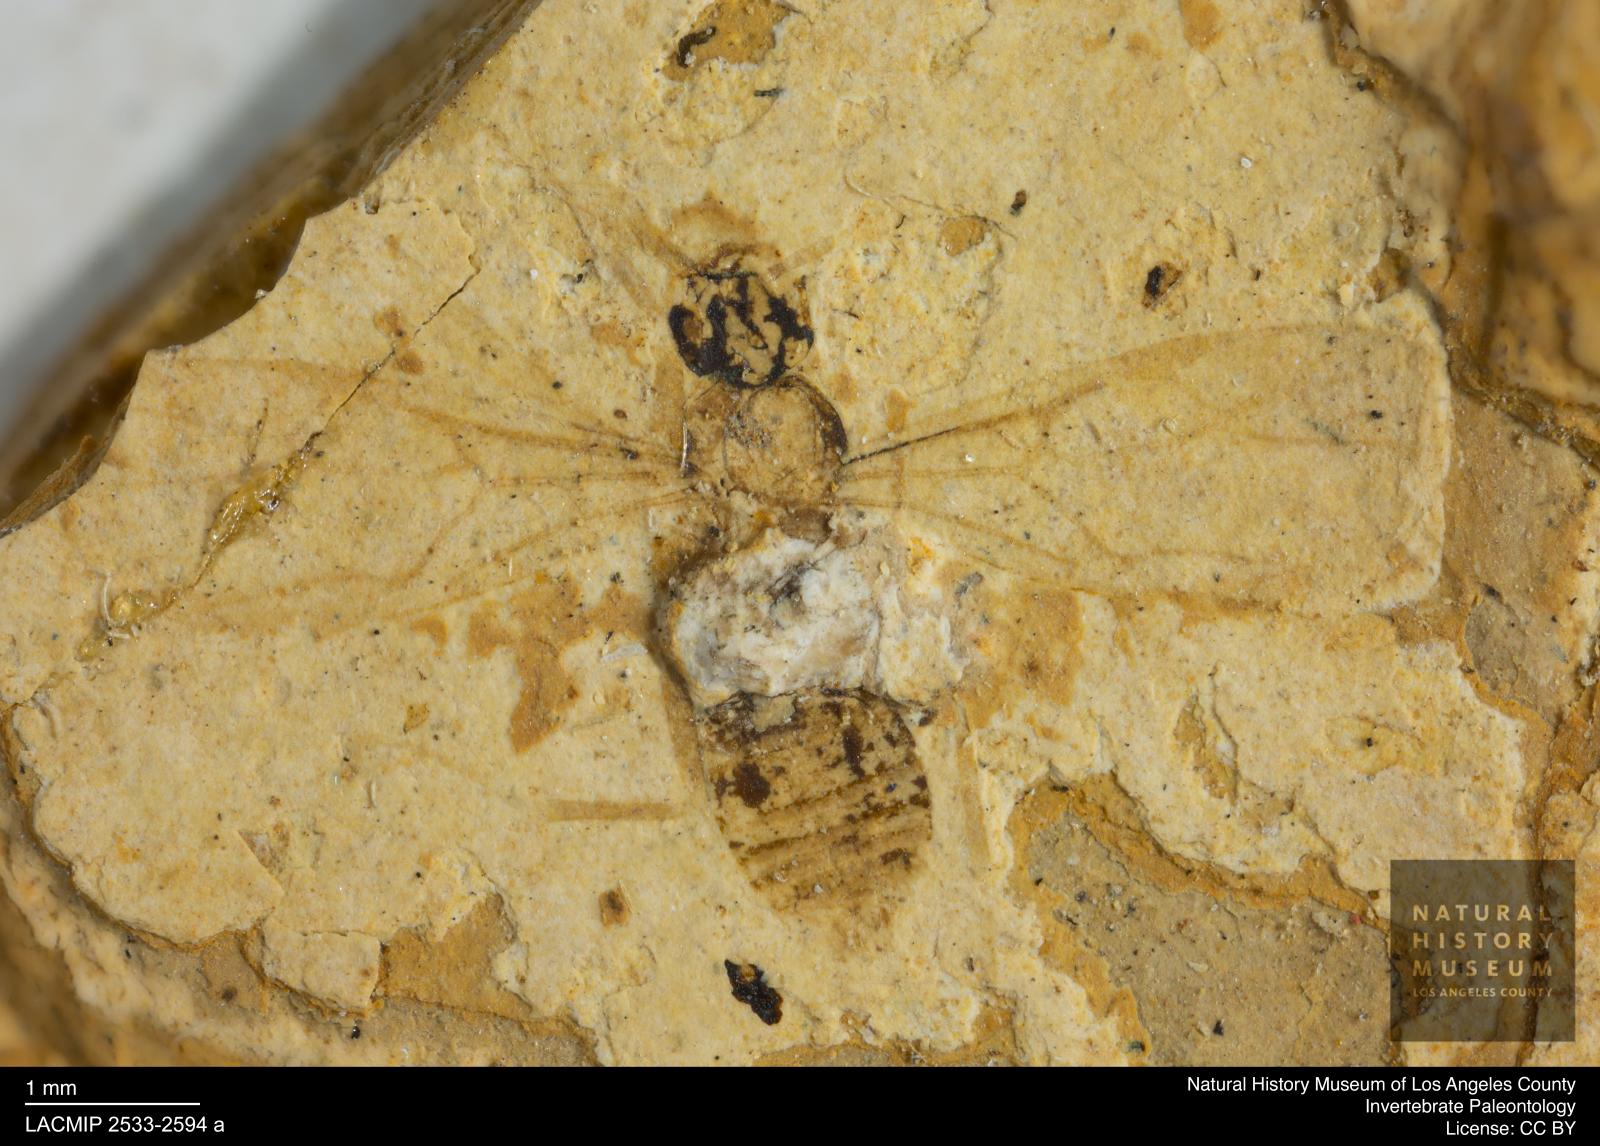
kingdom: Animalia
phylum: Arthropoda
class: Insecta
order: Hymenoptera
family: Formicidae
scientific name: Formicidae
